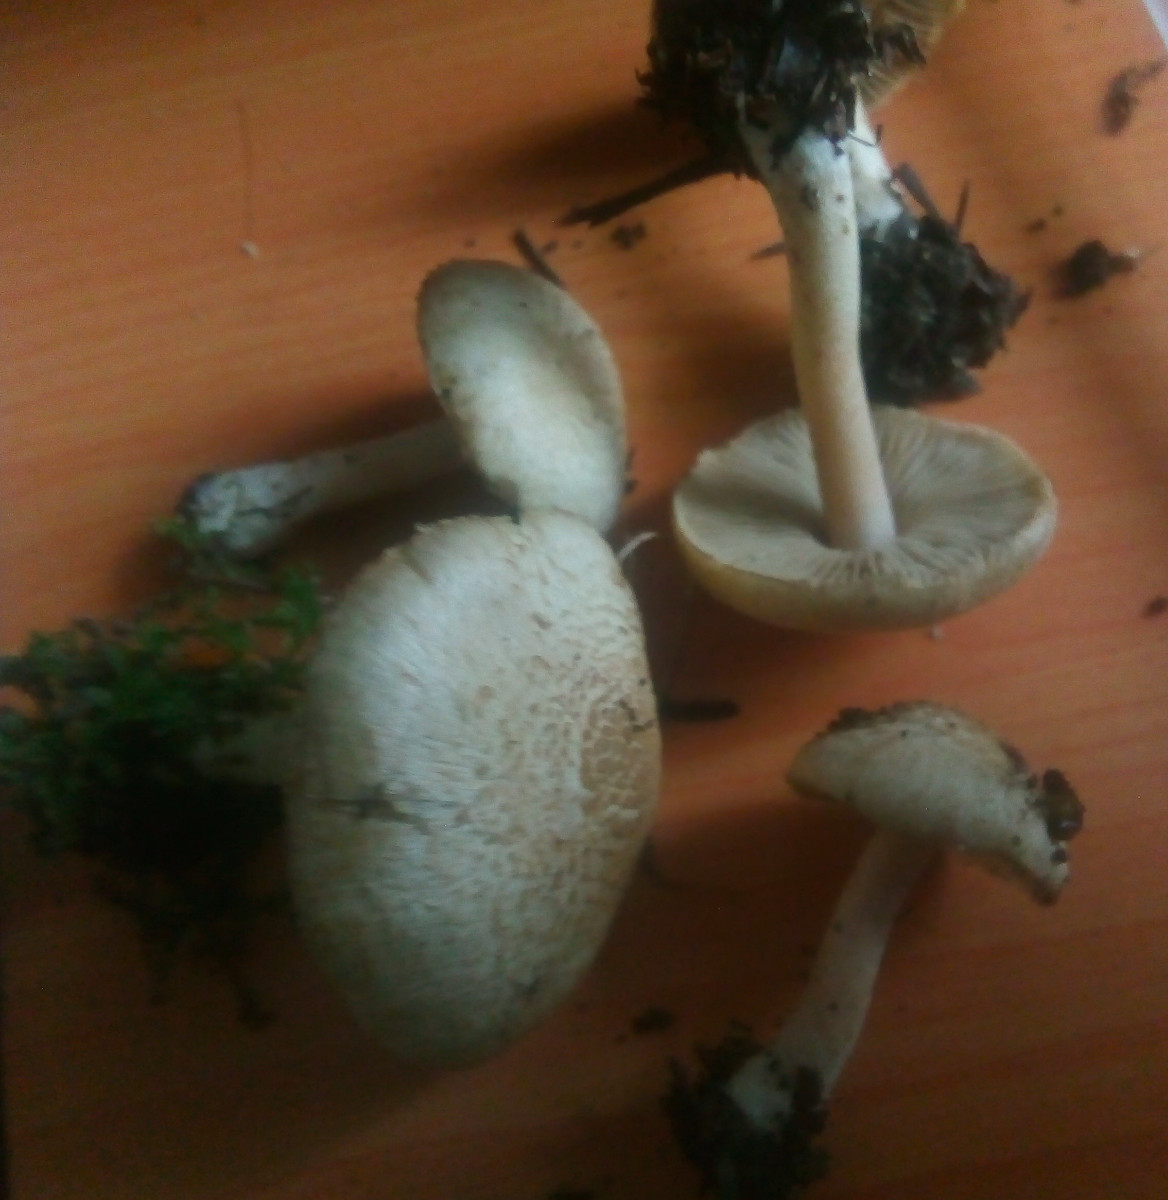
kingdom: Fungi
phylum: Basidiomycota
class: Agaricomycetes
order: Agaricales
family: Inocybaceae
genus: Inocybe
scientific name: Inocybe sindonia
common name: bleg trævlhat
